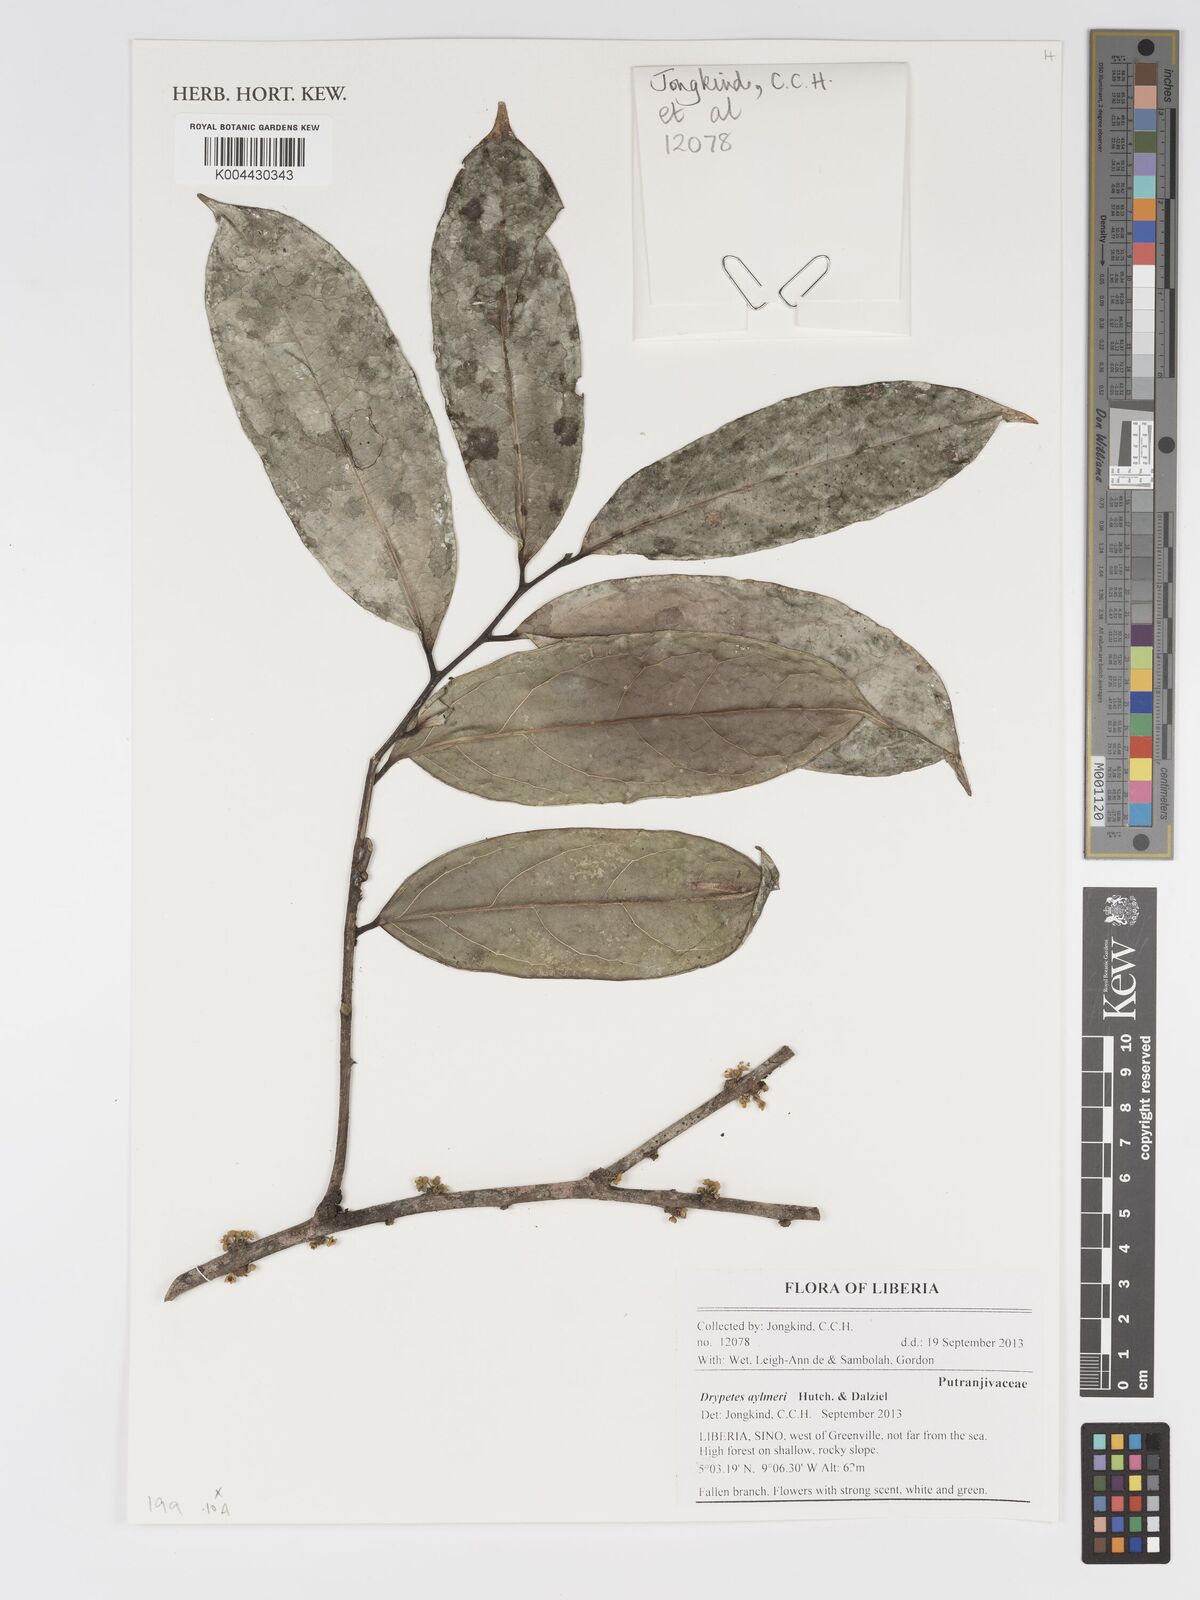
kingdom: Plantae
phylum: Tracheophyta
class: Magnoliopsida
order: Malpighiales
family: Putranjivaceae
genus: Drypetes
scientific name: Drypetes aylmeri
